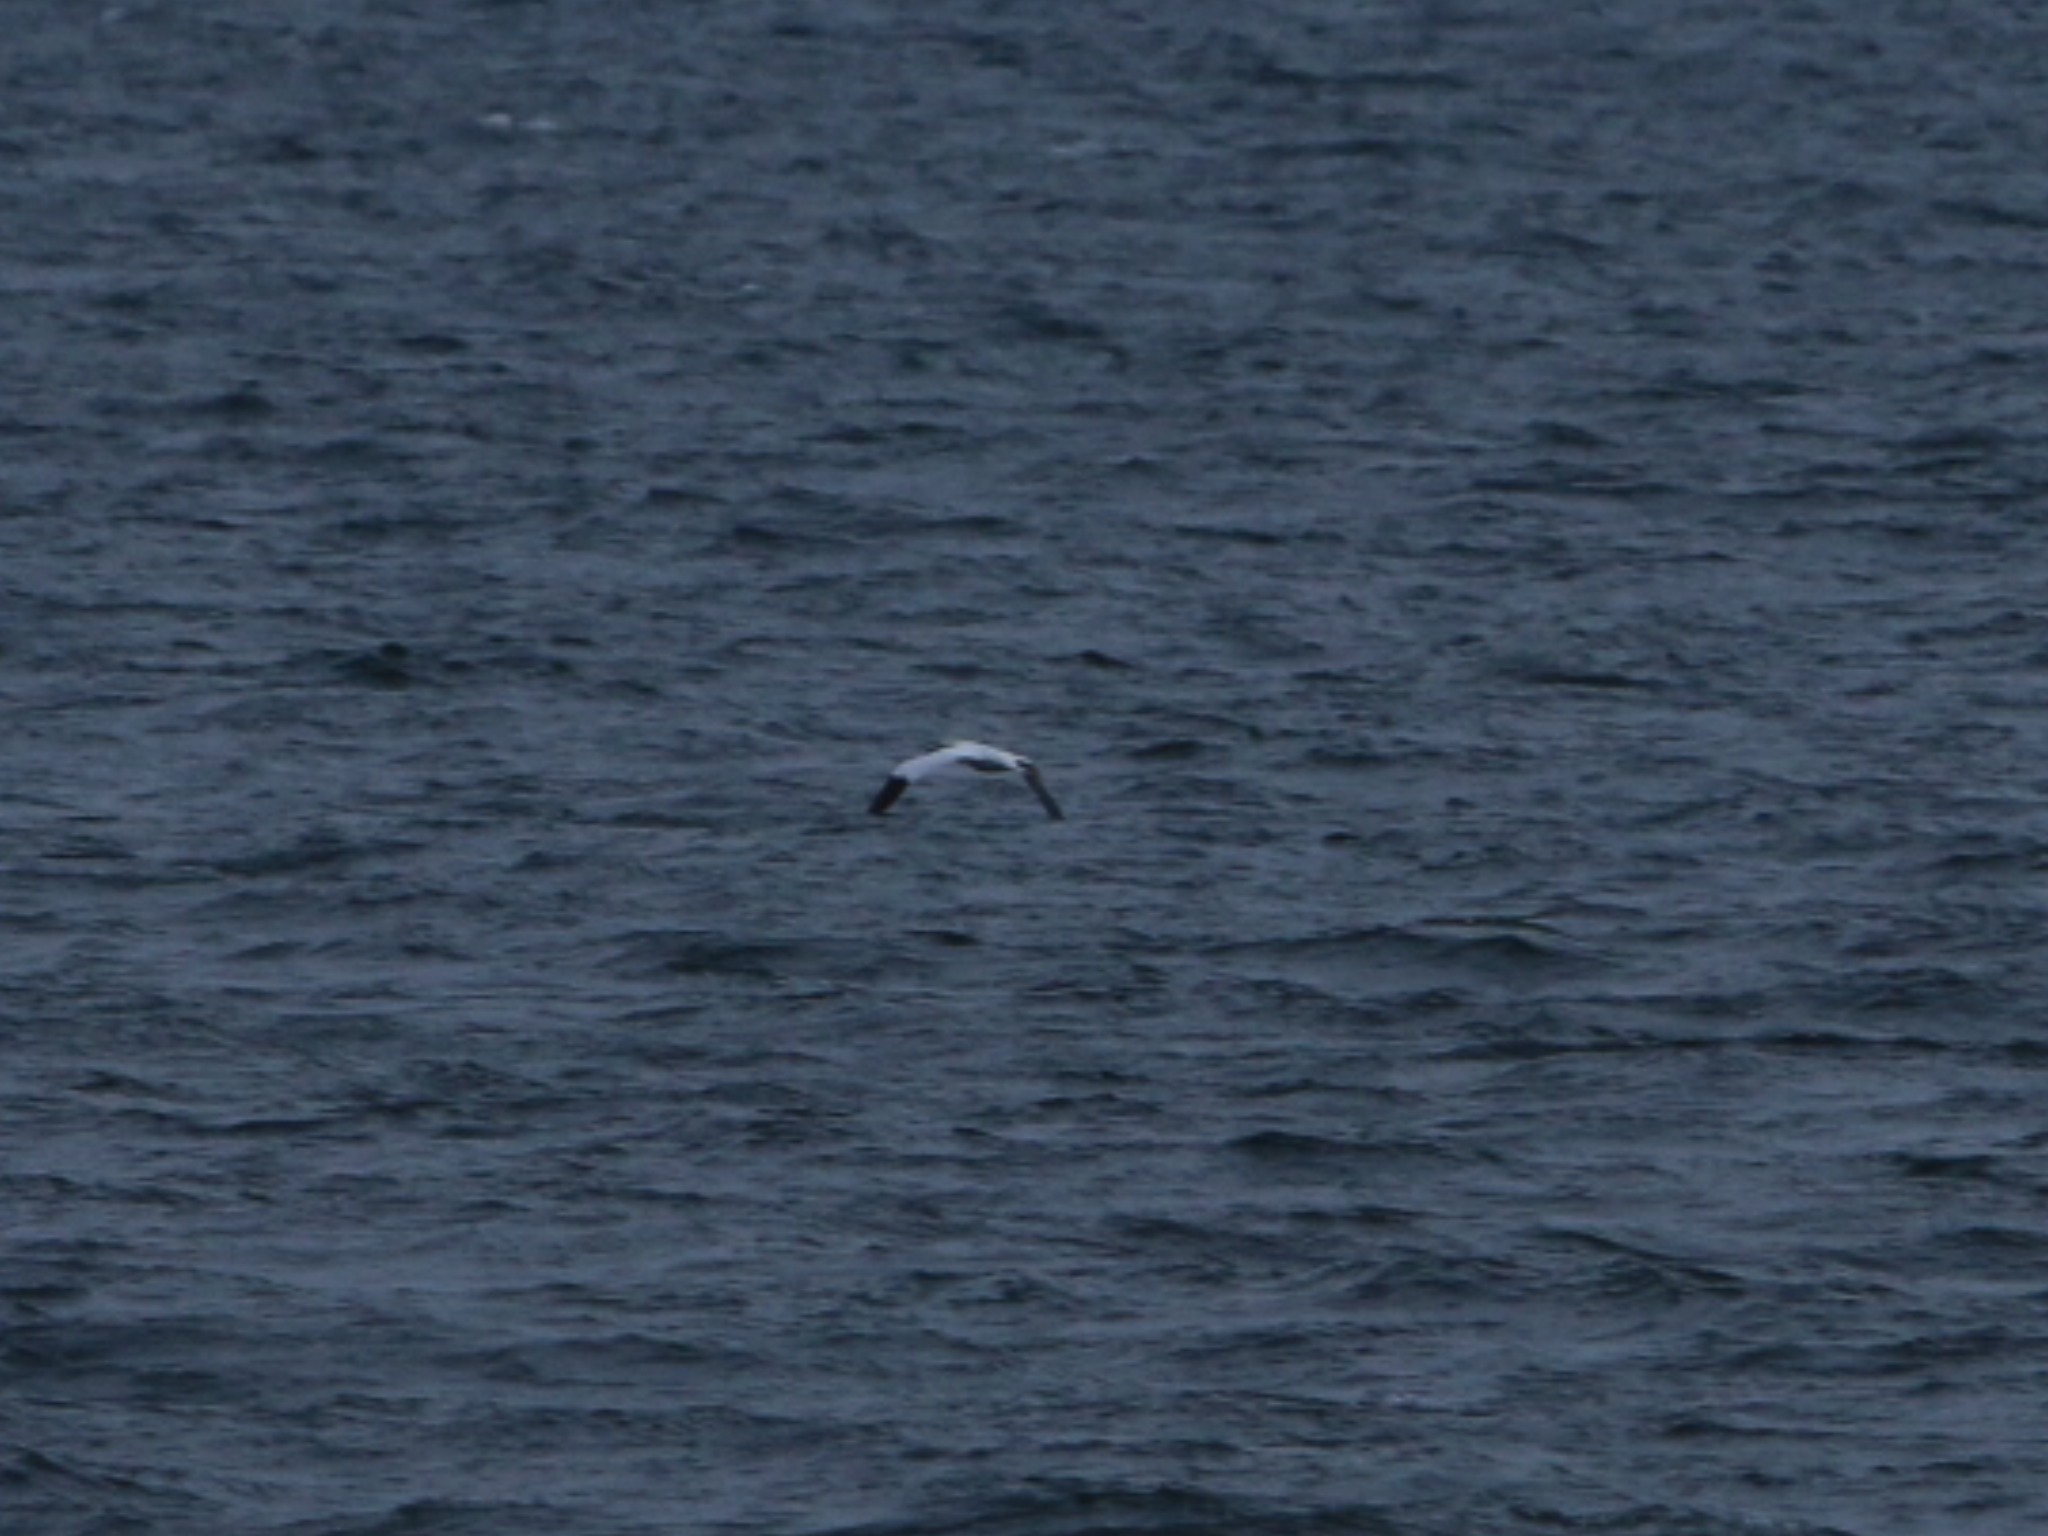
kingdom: Animalia
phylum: Chordata
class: Aves
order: Suliformes
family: Sulidae
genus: Morus
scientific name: Morus bassanus
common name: Sule
